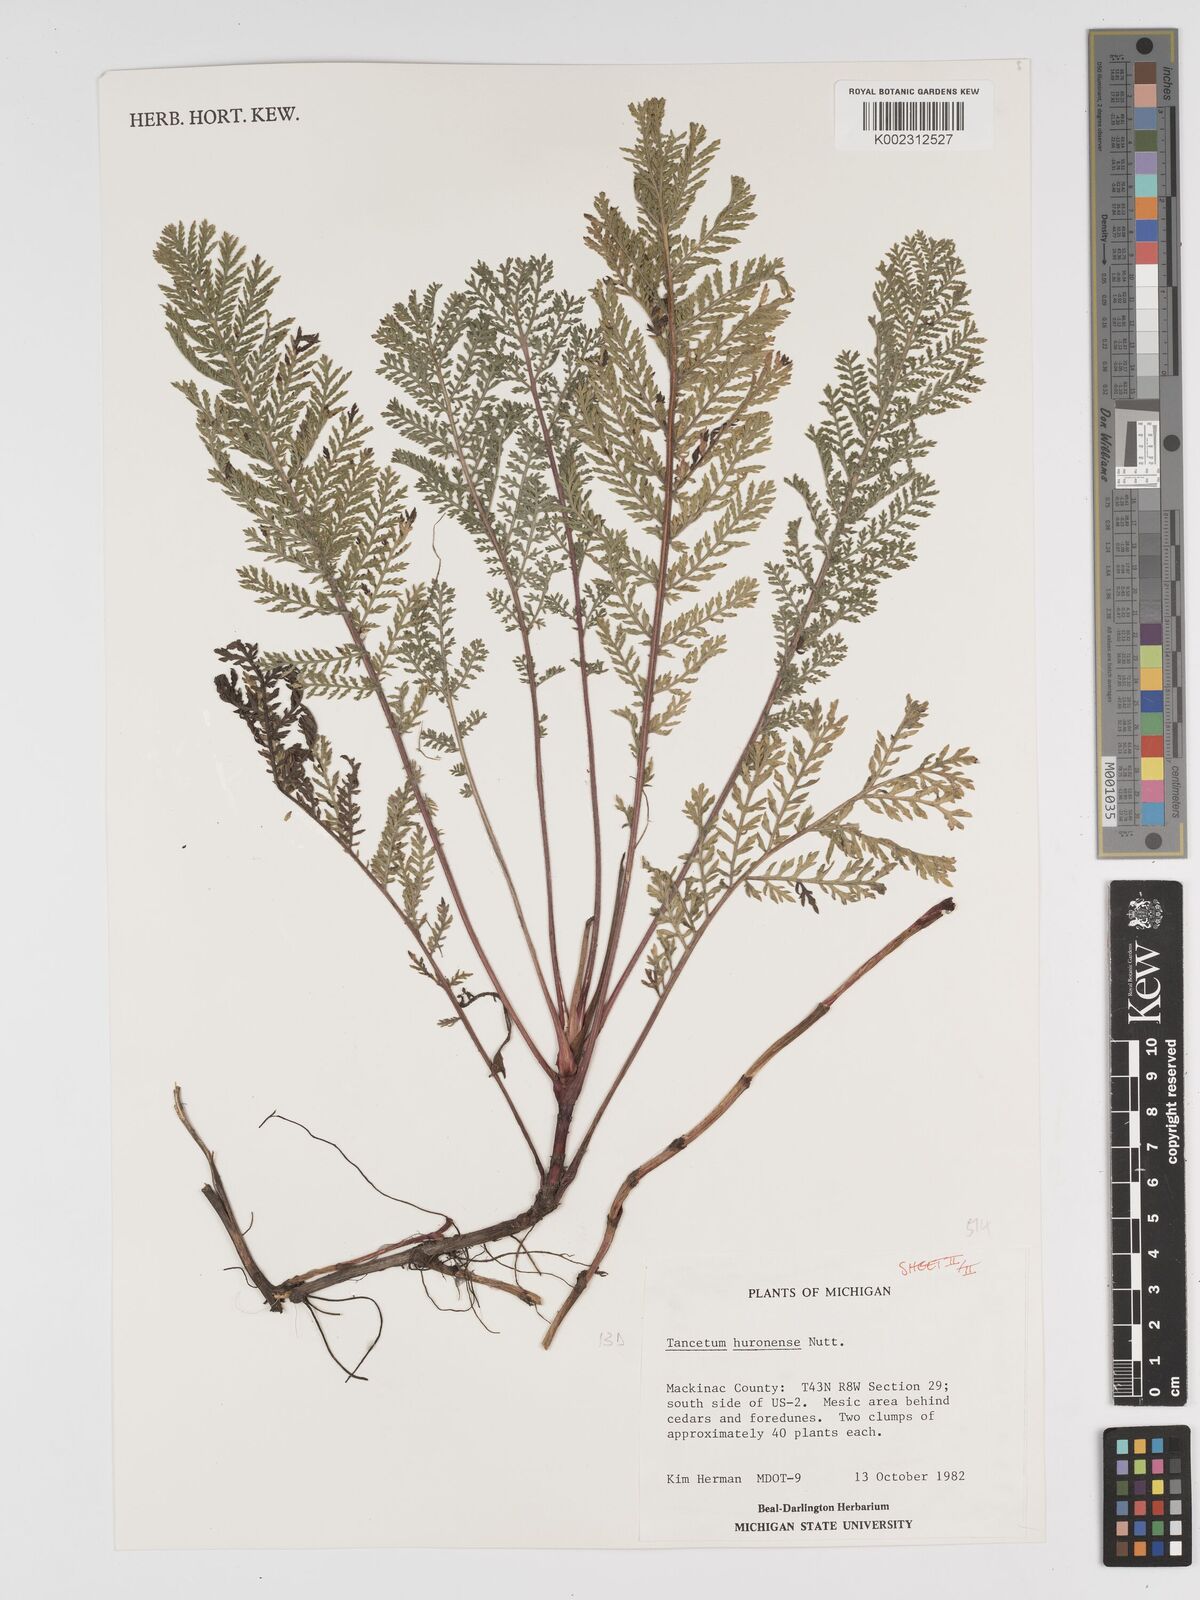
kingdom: Plantae
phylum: Tracheophyta
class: Magnoliopsida
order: Asterales
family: Asteraceae
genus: Tanacetum
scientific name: Tanacetum bipinnatum
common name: Dwarf tansy
